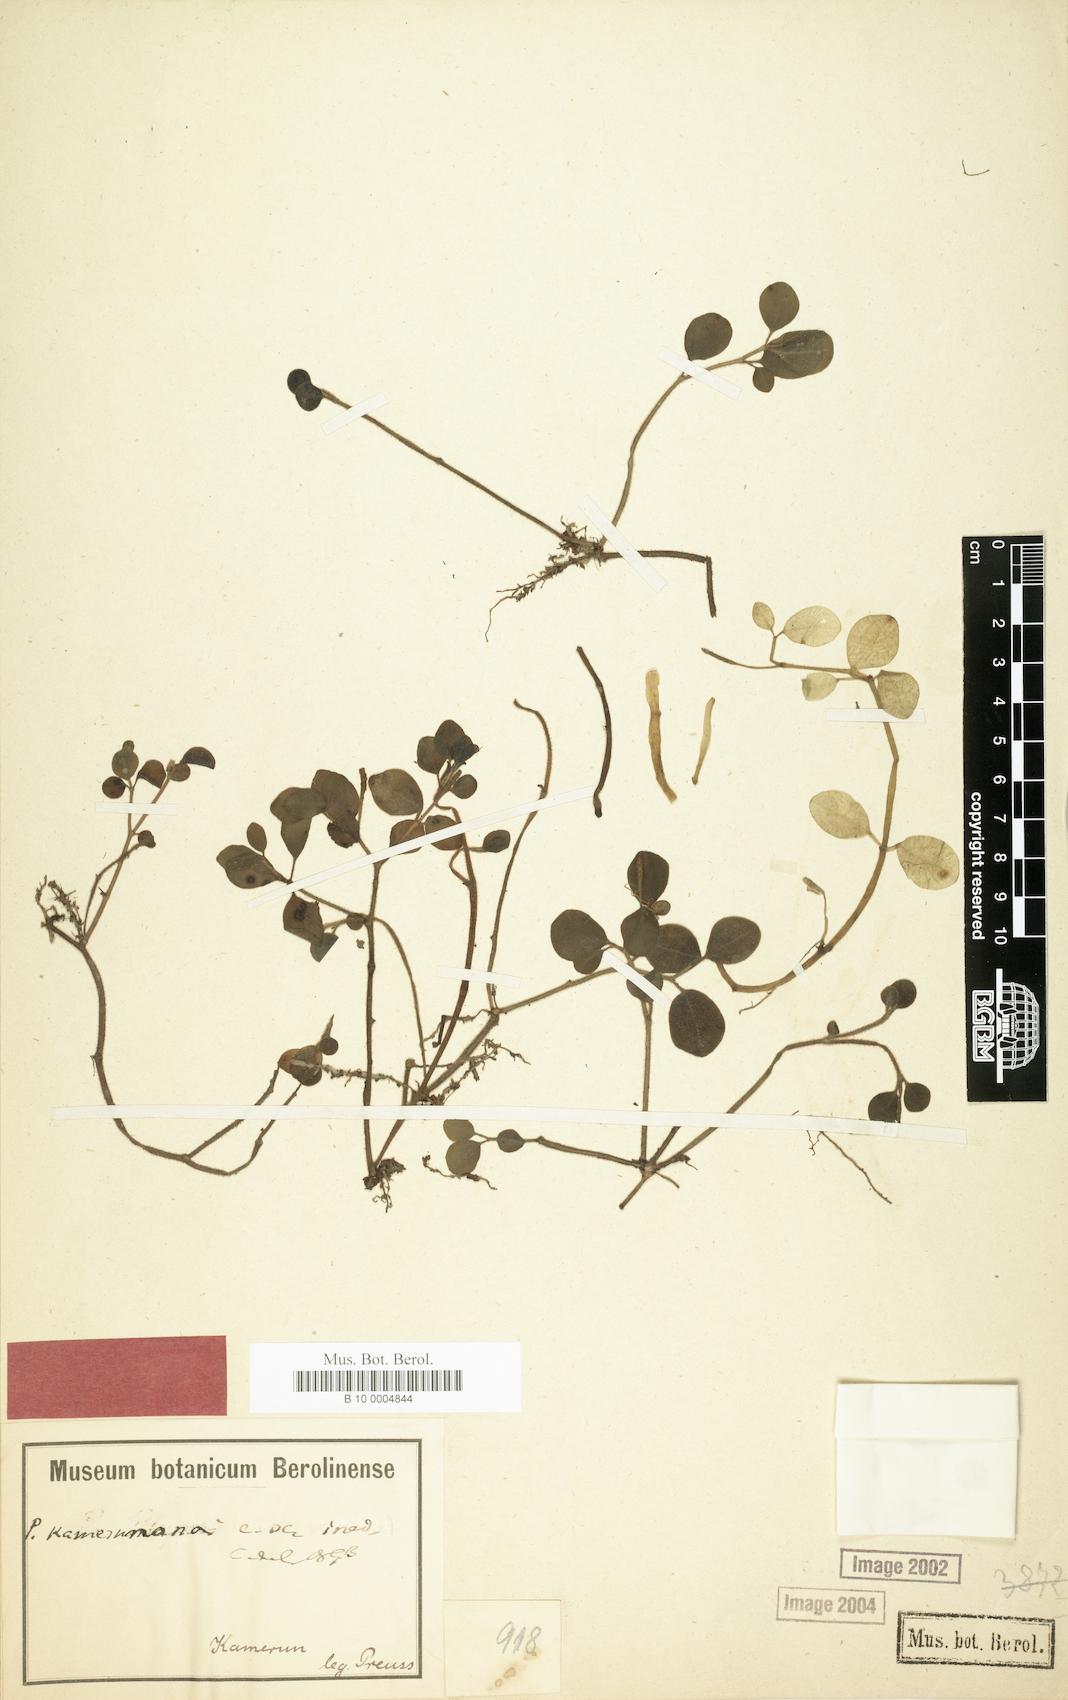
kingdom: Plantae
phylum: Tracheophyta
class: Magnoliopsida
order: Piperales
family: Piperaceae
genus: Peperomia
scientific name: Peperomia kamerunana
